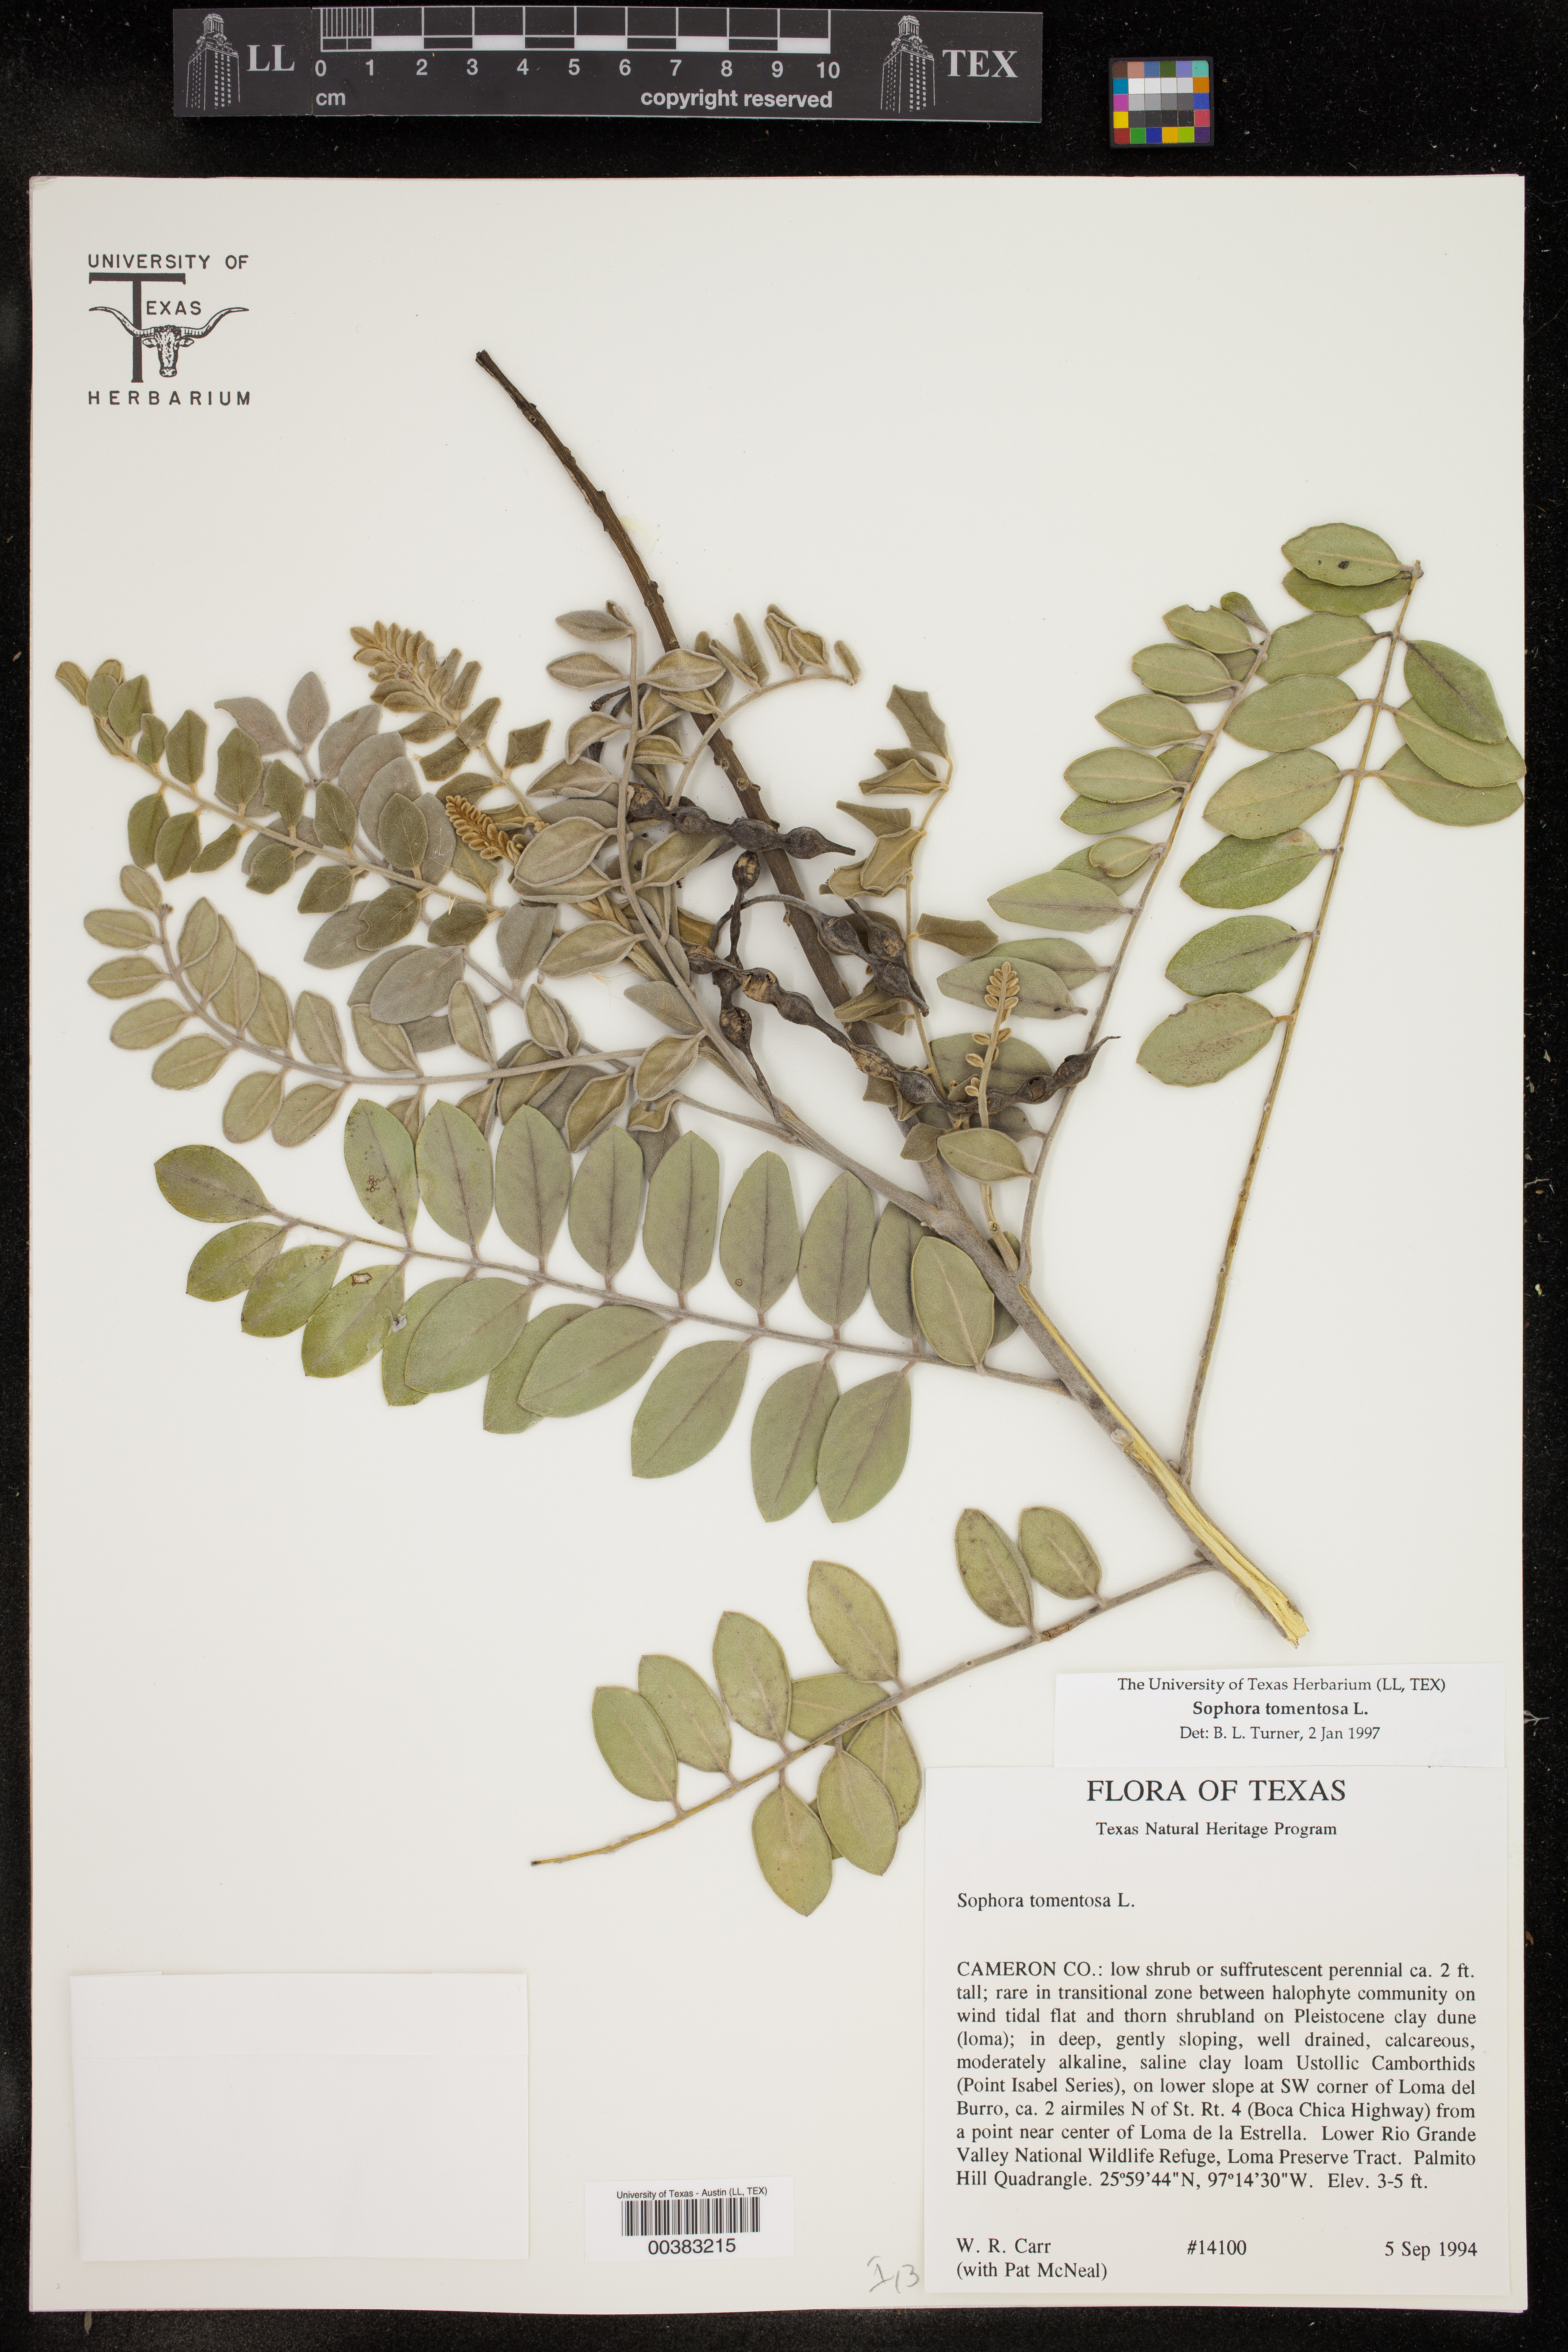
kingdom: Plantae
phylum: Tracheophyta
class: Magnoliopsida
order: Fabales
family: Fabaceae
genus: Sophora
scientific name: Sophora tomentosa
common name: Yellow necklacepod
